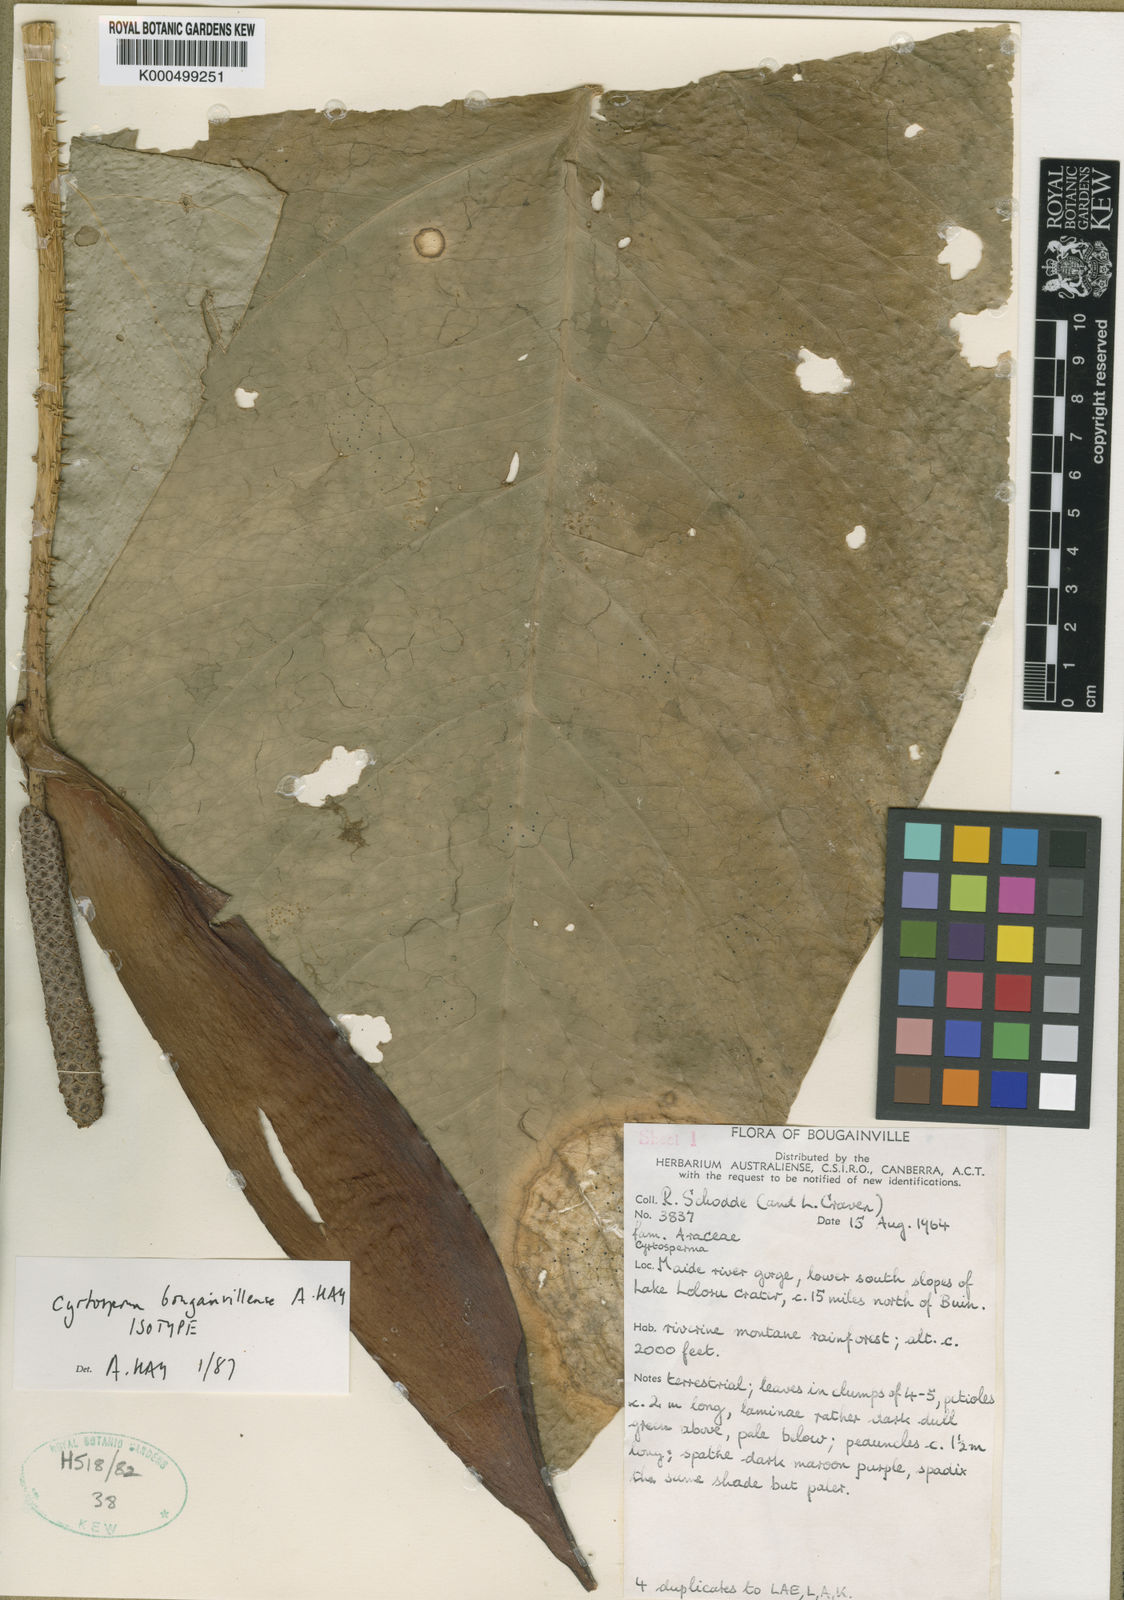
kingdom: Plantae
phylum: Tracheophyta
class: Liliopsida
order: Alismatales
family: Araceae
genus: Cyrtosperma
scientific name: Cyrtosperma
